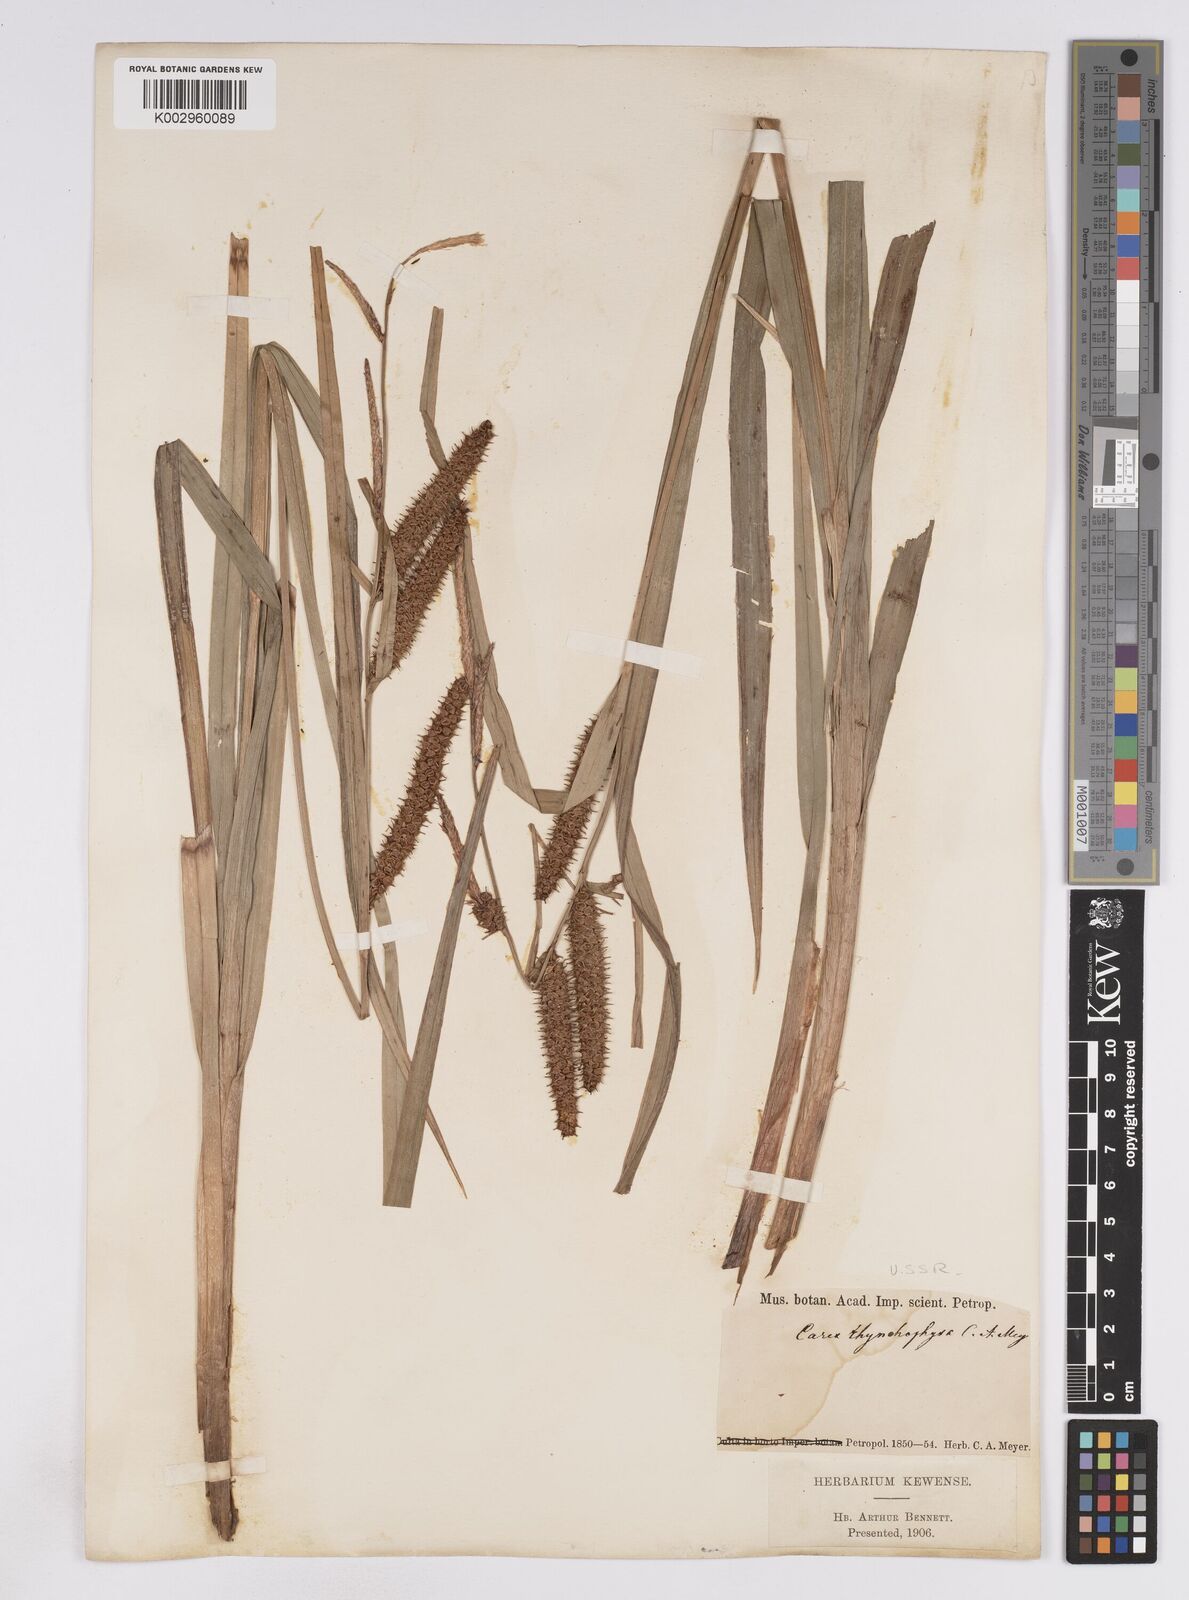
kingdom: Plantae
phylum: Tracheophyta
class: Liliopsida
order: Poales
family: Cyperaceae
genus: Carex
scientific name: Carex utriculata
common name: Beaked sedge
